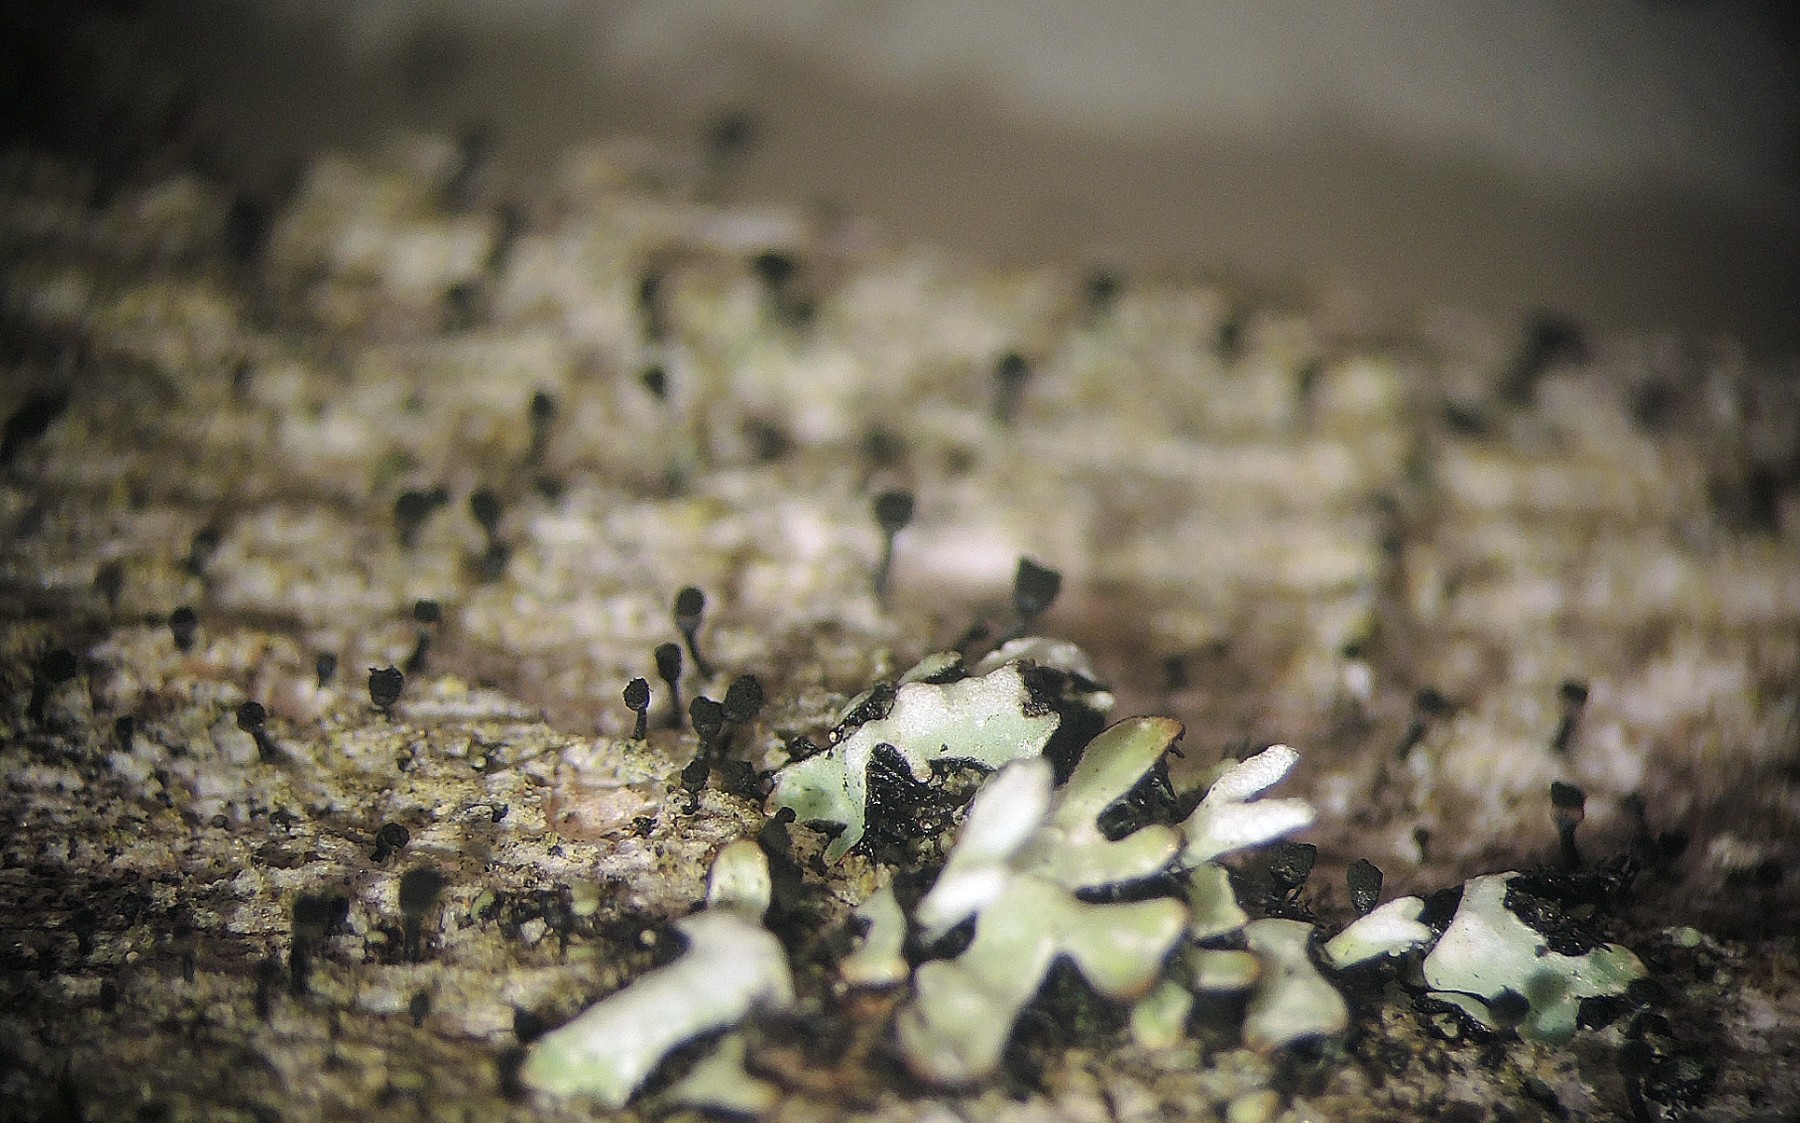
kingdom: Fungi
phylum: Ascomycota
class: Lecanoromycetes
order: Caliciales
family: Caliciaceae
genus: Calicium
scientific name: Calicium salicinum
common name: persoons nålelav
